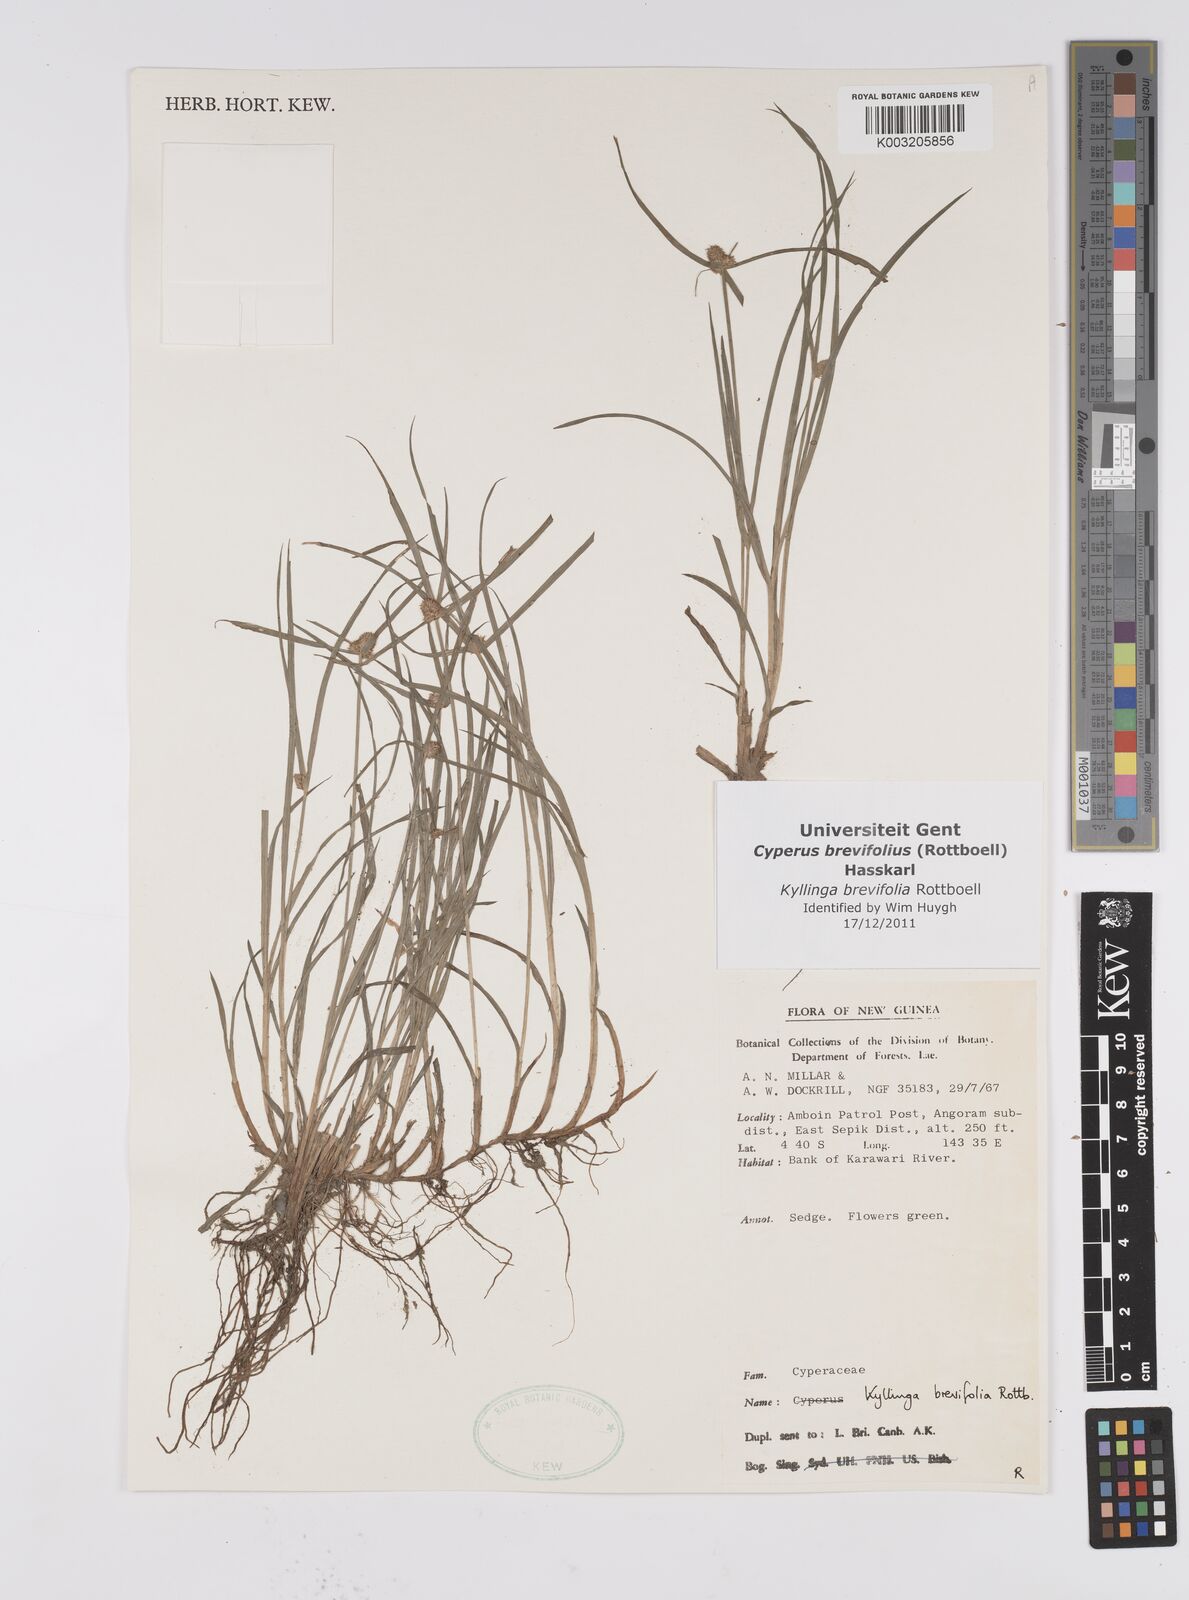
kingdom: Plantae
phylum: Tracheophyta
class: Liliopsida
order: Poales
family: Cyperaceae
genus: Cyperus
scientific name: Cyperus brevifolius
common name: Globe kyllinga
